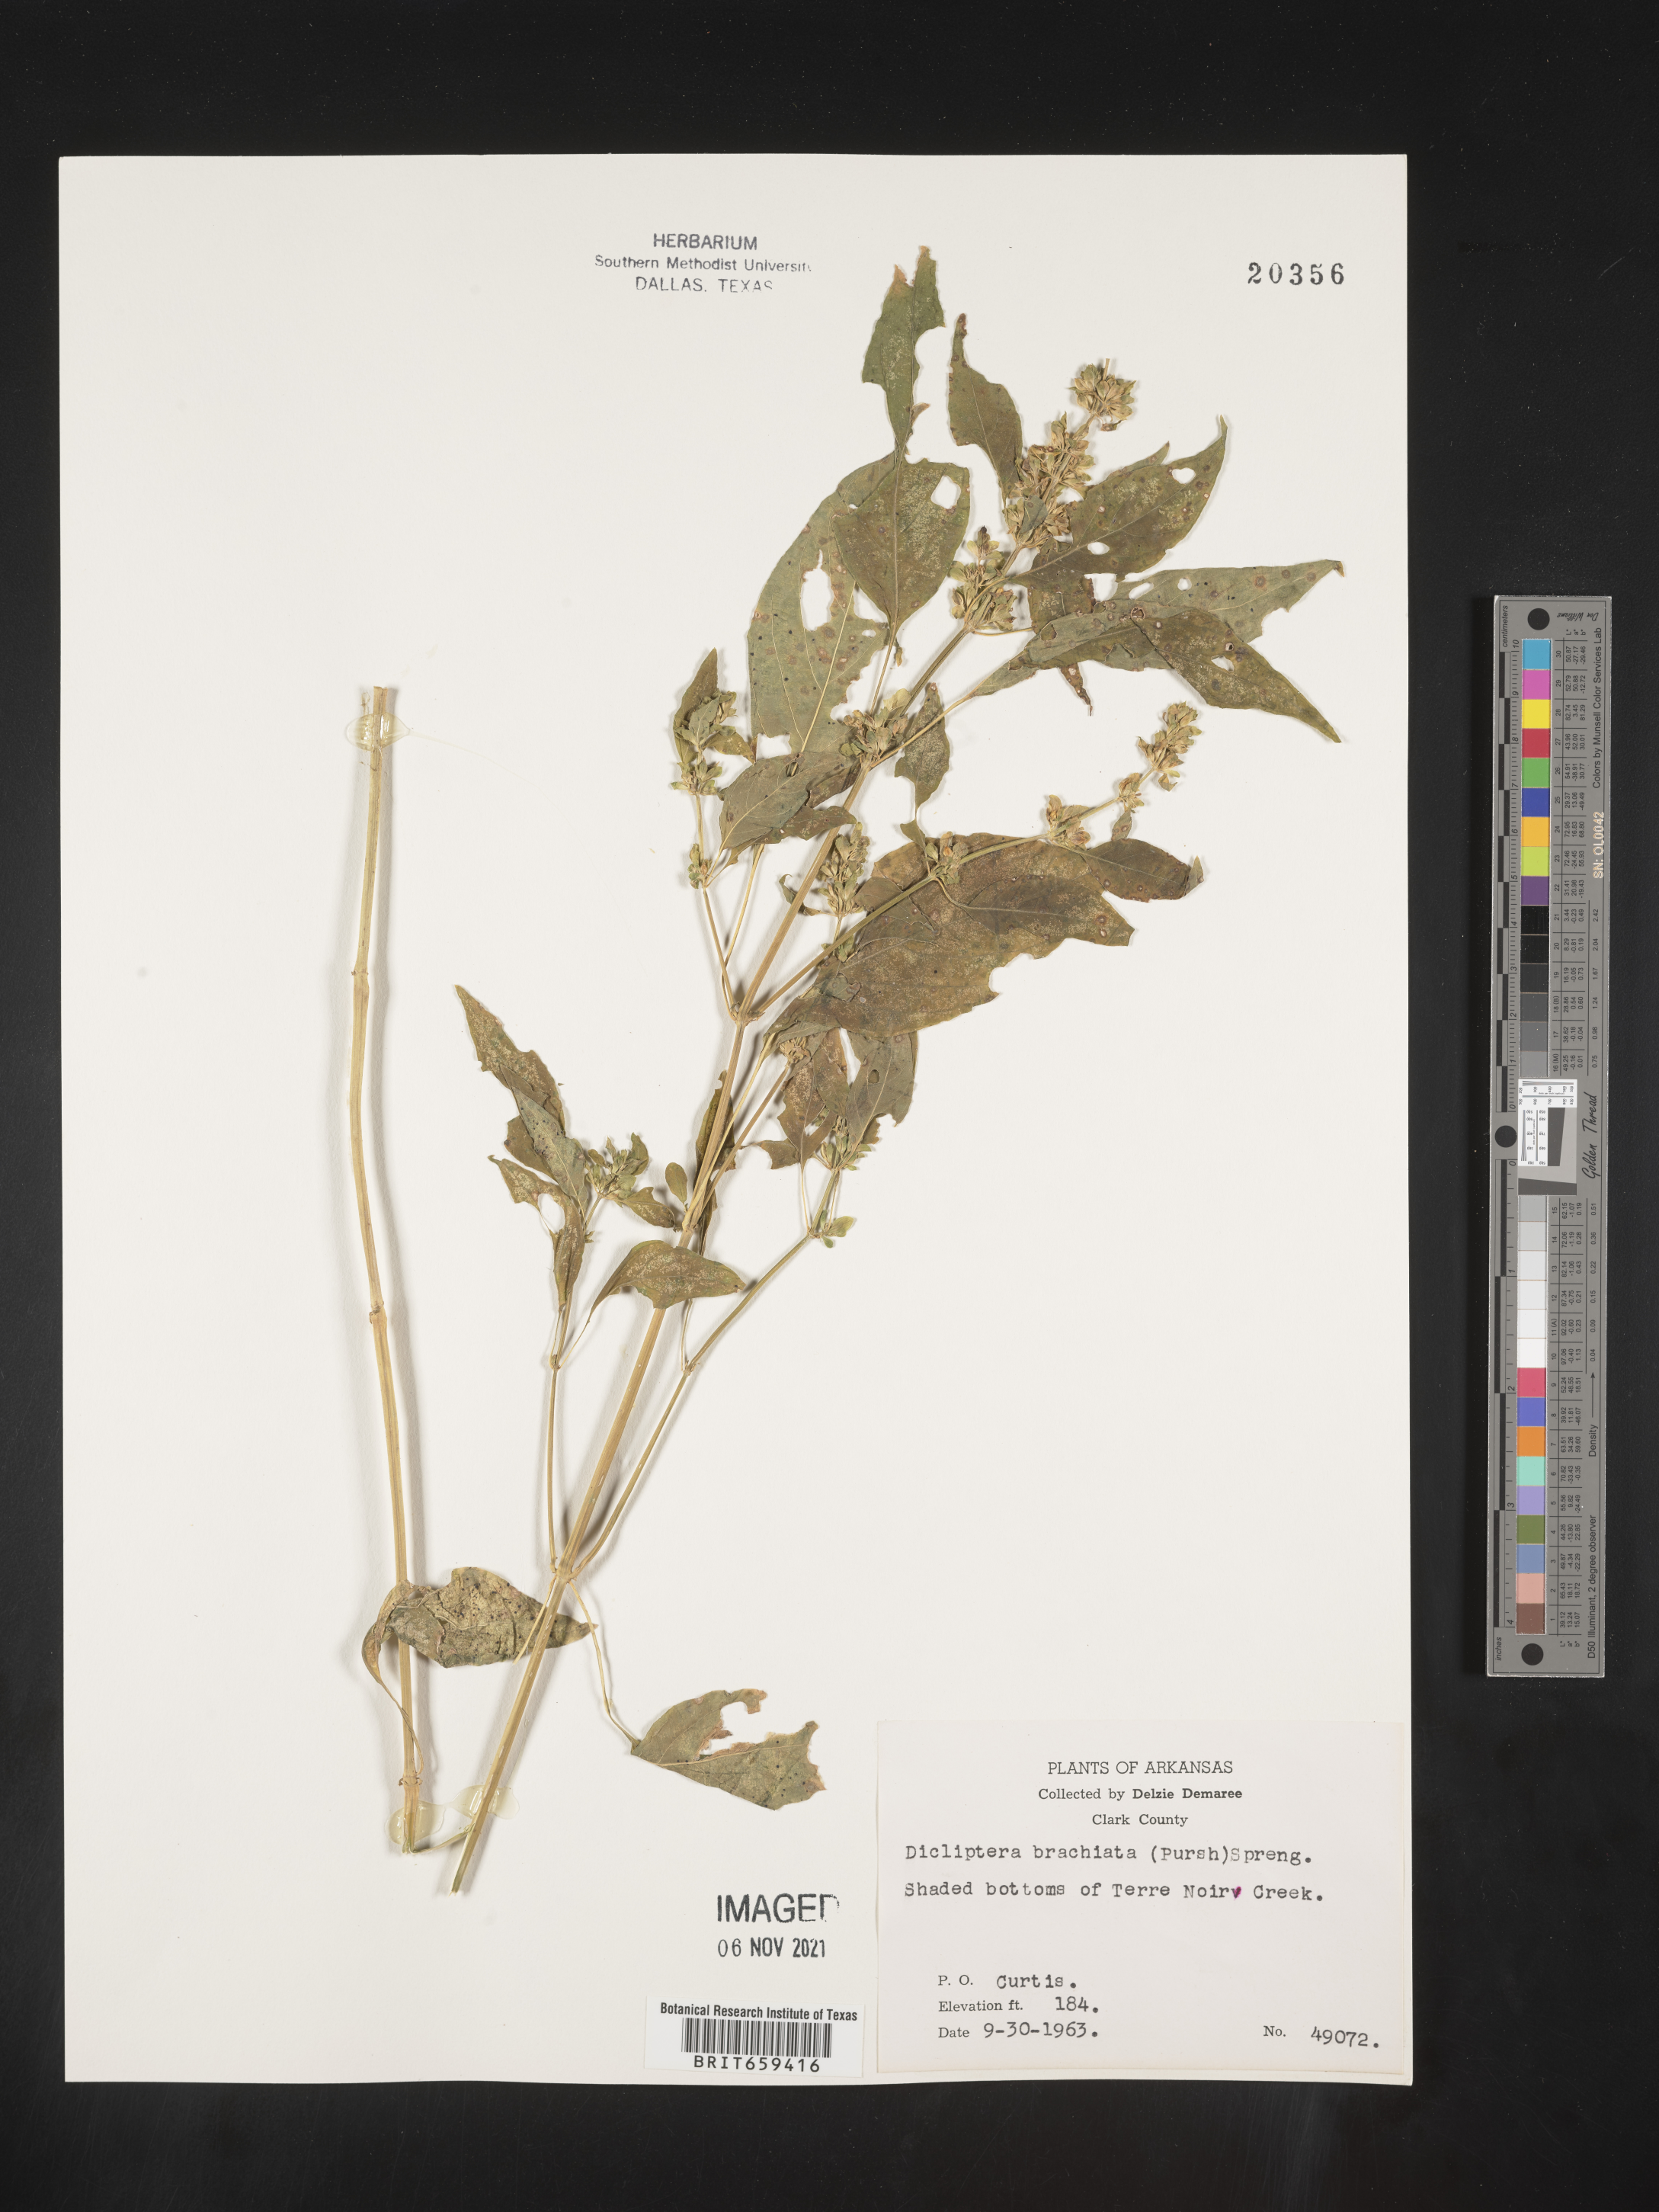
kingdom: Plantae
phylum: Tracheophyta
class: Magnoliopsida
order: Lamiales
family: Acanthaceae
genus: Dicliptera
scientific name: Dicliptera brachiata
